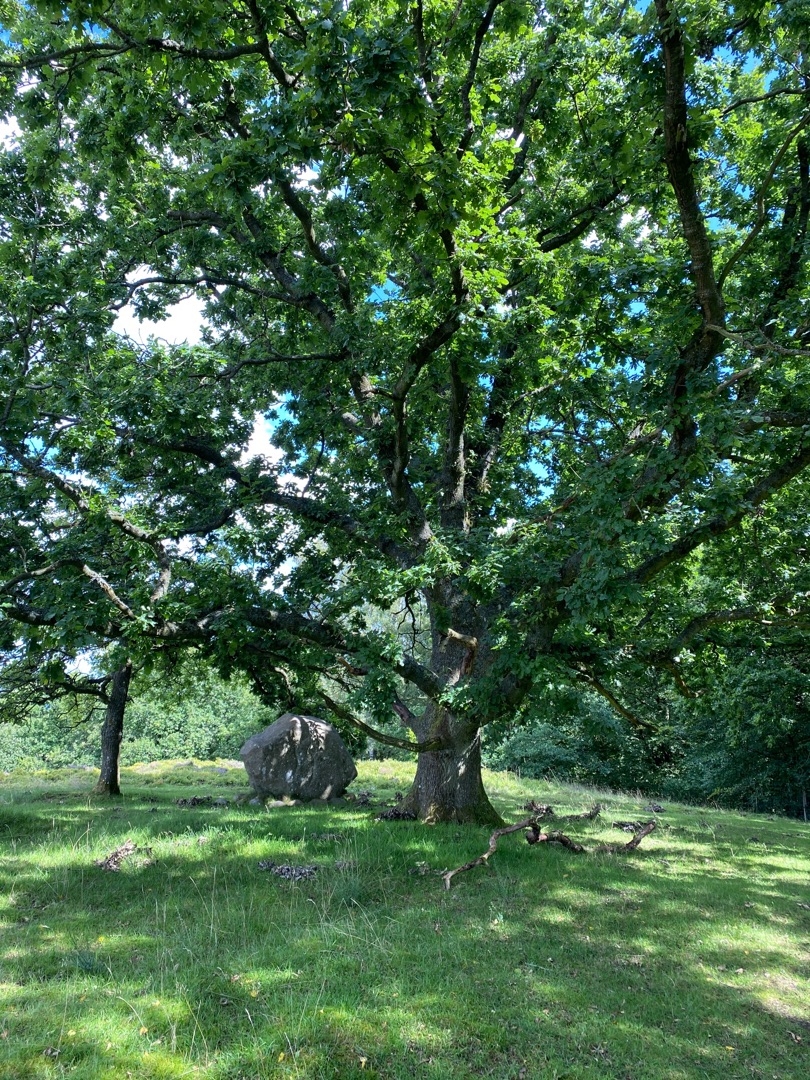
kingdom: Plantae
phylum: Tracheophyta
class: Magnoliopsida
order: Fagales
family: Fagaceae
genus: Quercus
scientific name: Quercus robur
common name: Stilk-eg/almindelig eg
